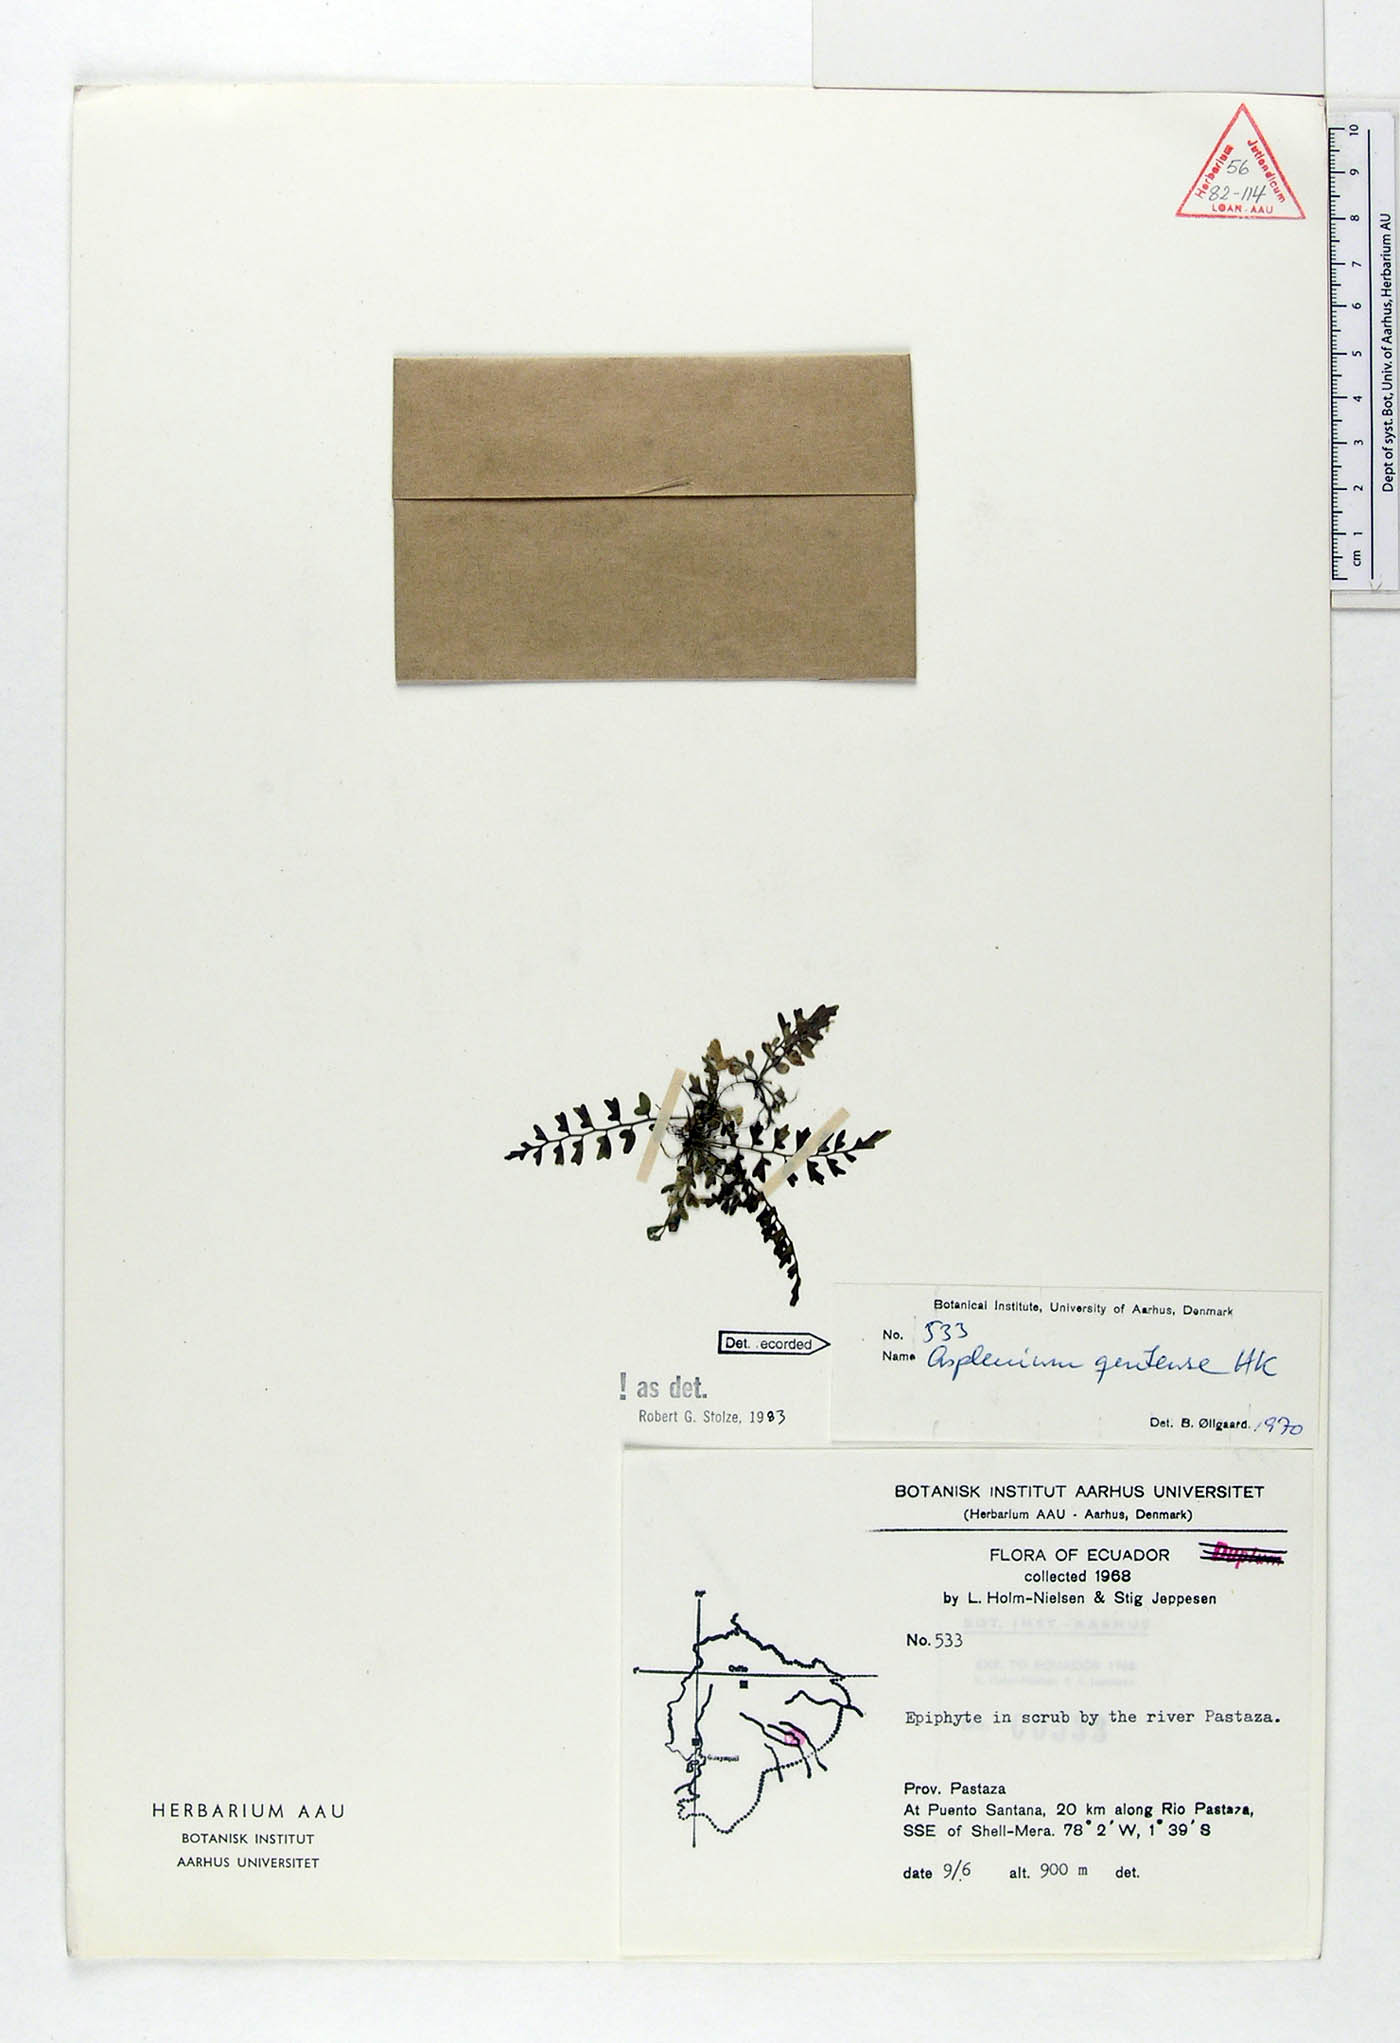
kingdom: Plantae
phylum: Tracheophyta
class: Polypodiopsida
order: Polypodiales
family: Aspleniaceae
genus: Asplenium
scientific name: Asplenium quitense
